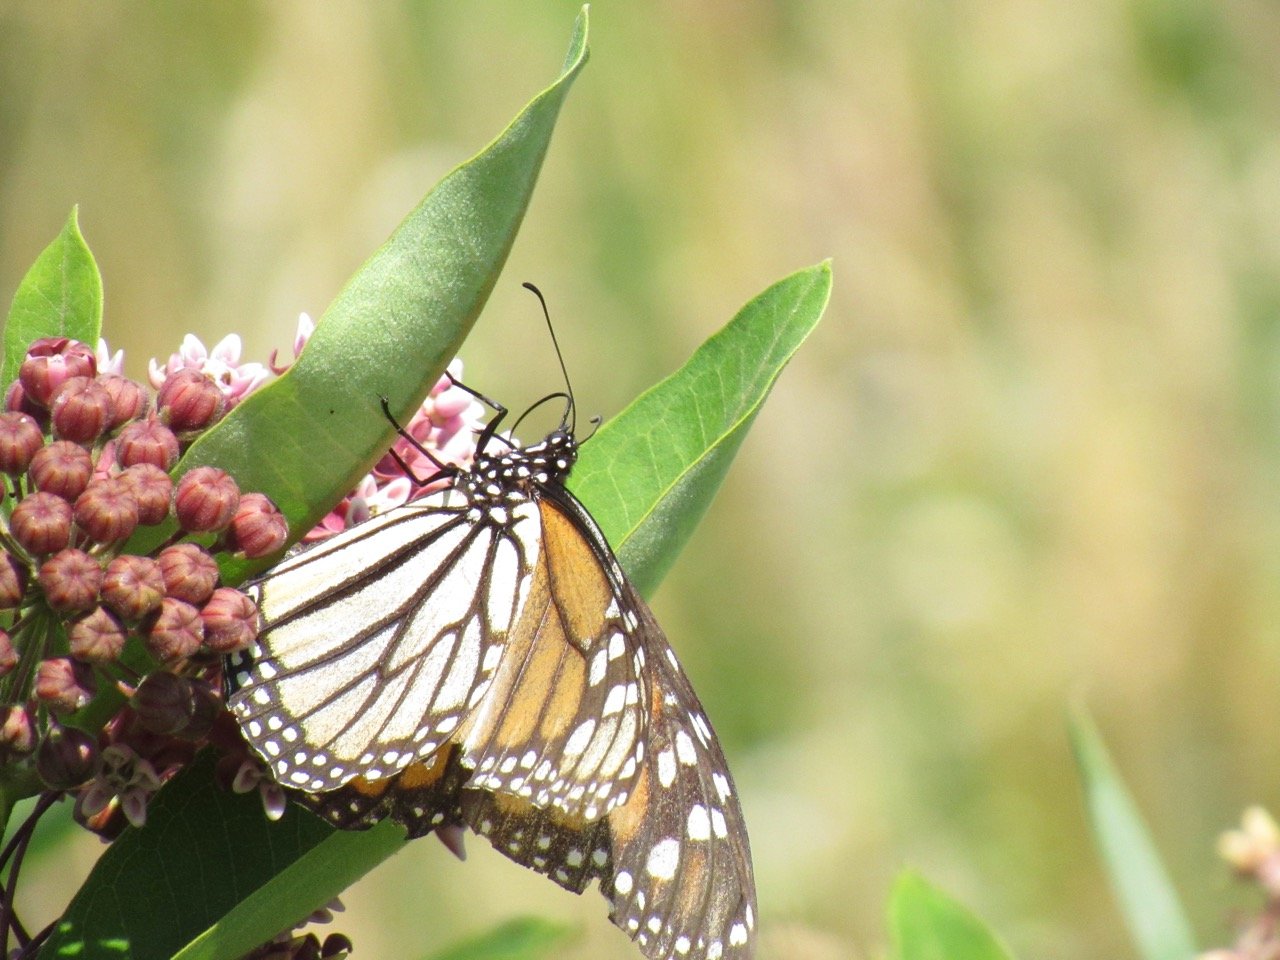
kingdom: Animalia
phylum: Arthropoda
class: Insecta
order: Lepidoptera
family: Nymphalidae
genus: Danaus
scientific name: Danaus plexippus
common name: Monarch
